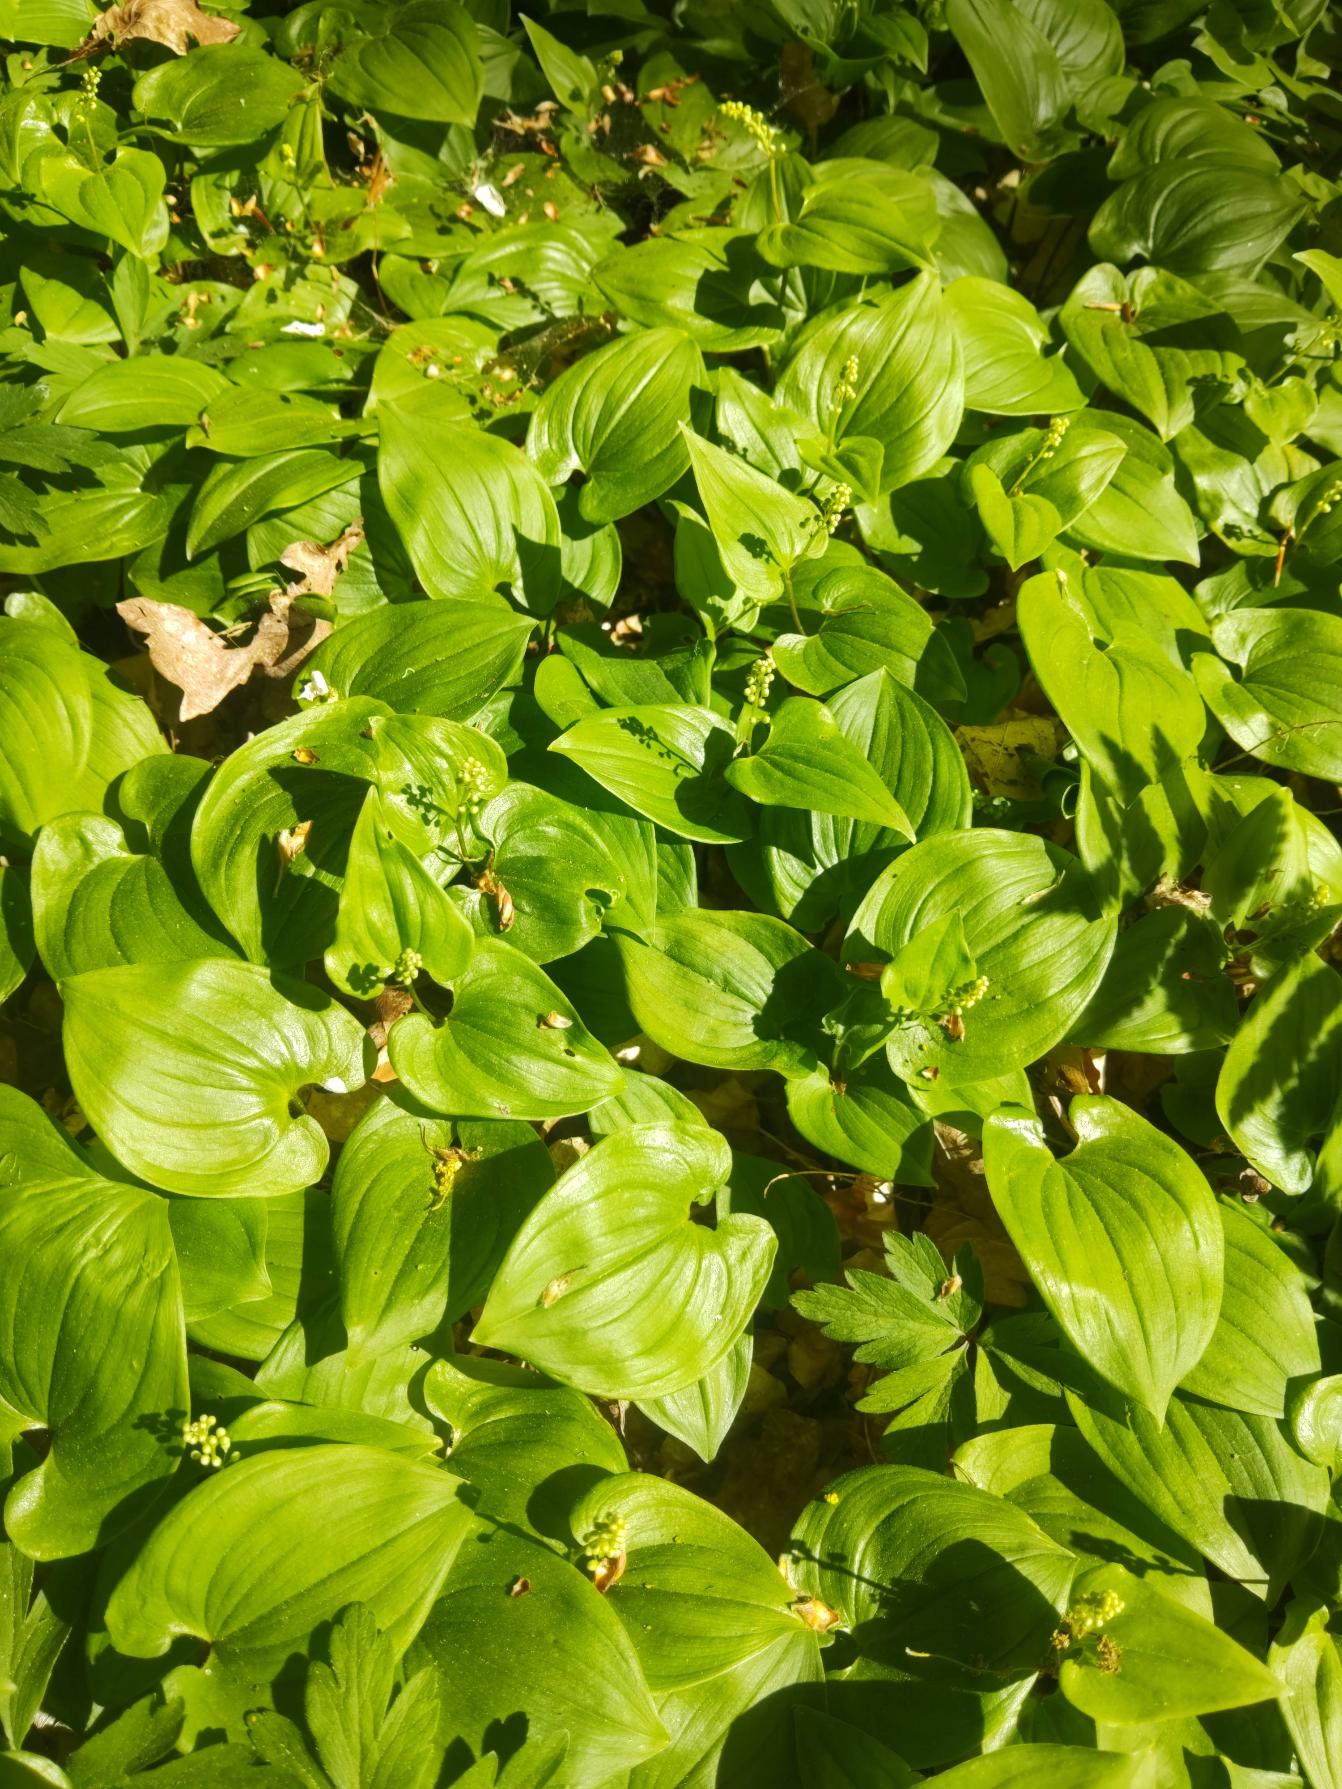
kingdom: Plantae
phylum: Tracheophyta
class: Liliopsida
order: Asparagales
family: Asparagaceae
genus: Maianthemum
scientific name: Maianthemum bifolium
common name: Majblomst
